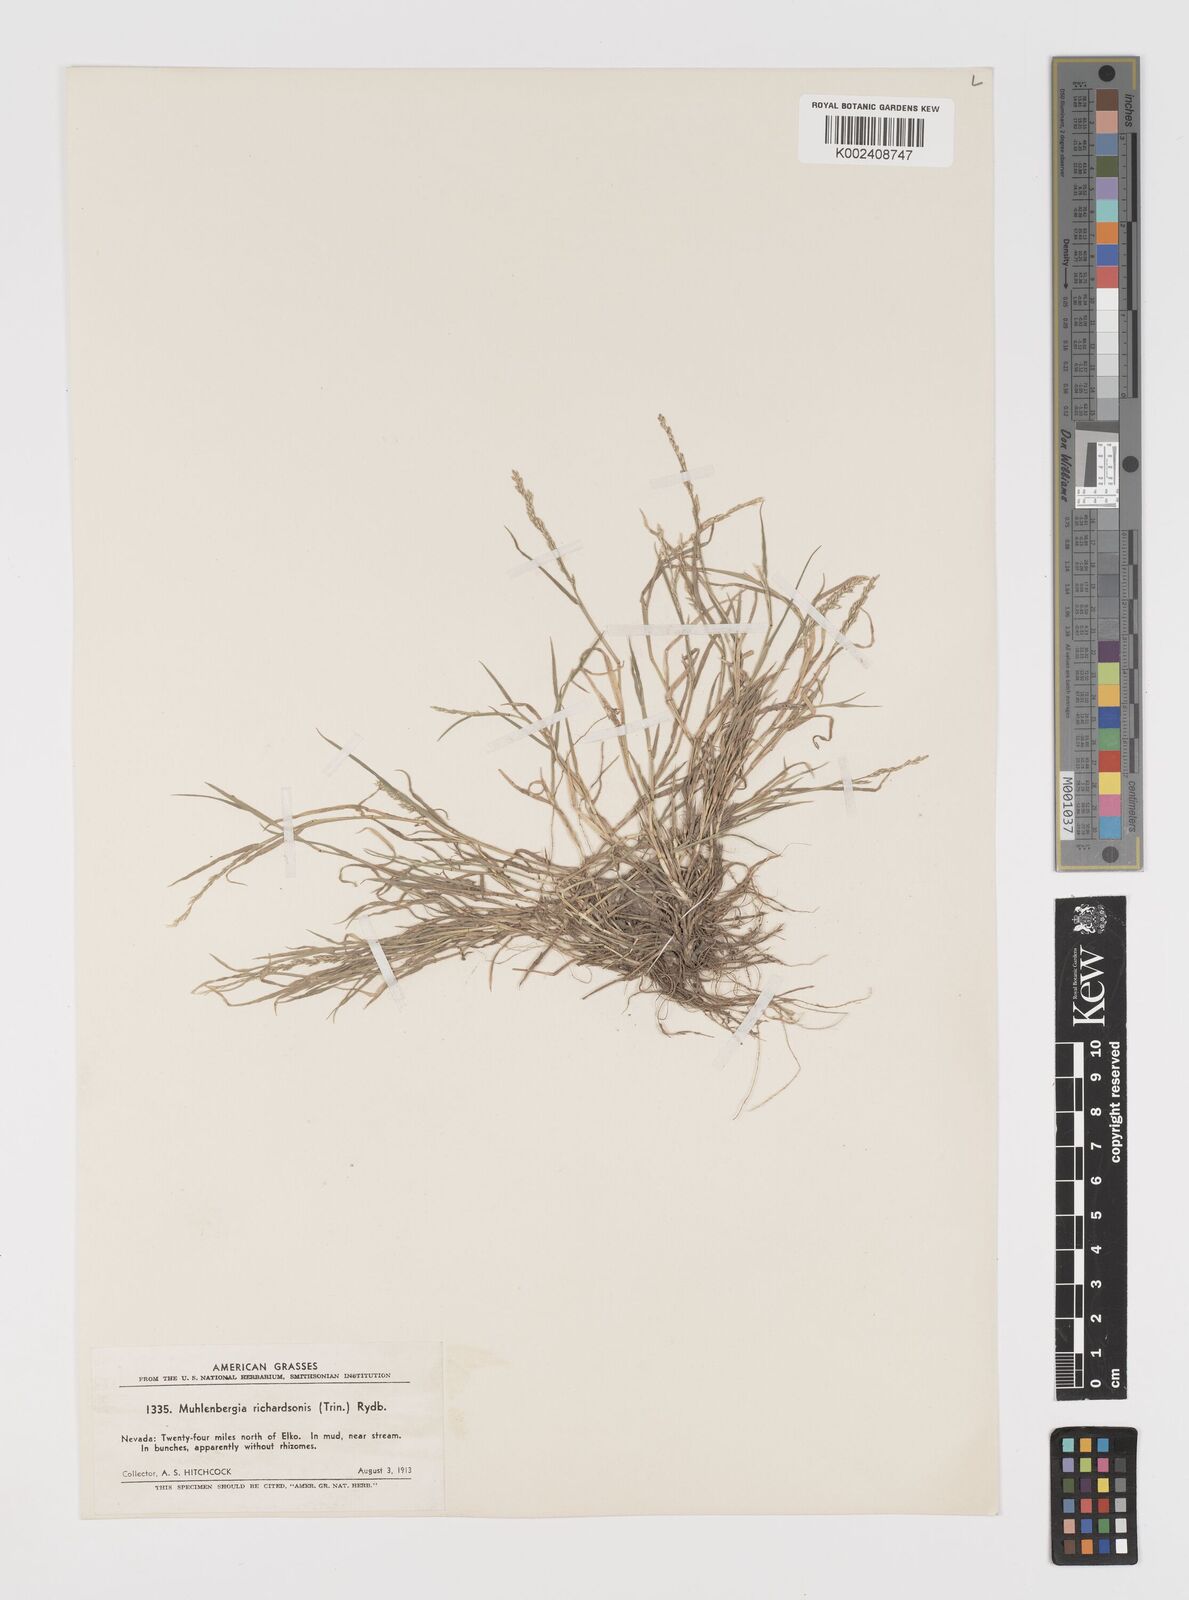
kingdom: Plantae
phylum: Tracheophyta
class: Liliopsida
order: Poales
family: Poaceae
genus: Muhlenbergia
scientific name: Muhlenbergia richardsonis
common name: Mat muhly
